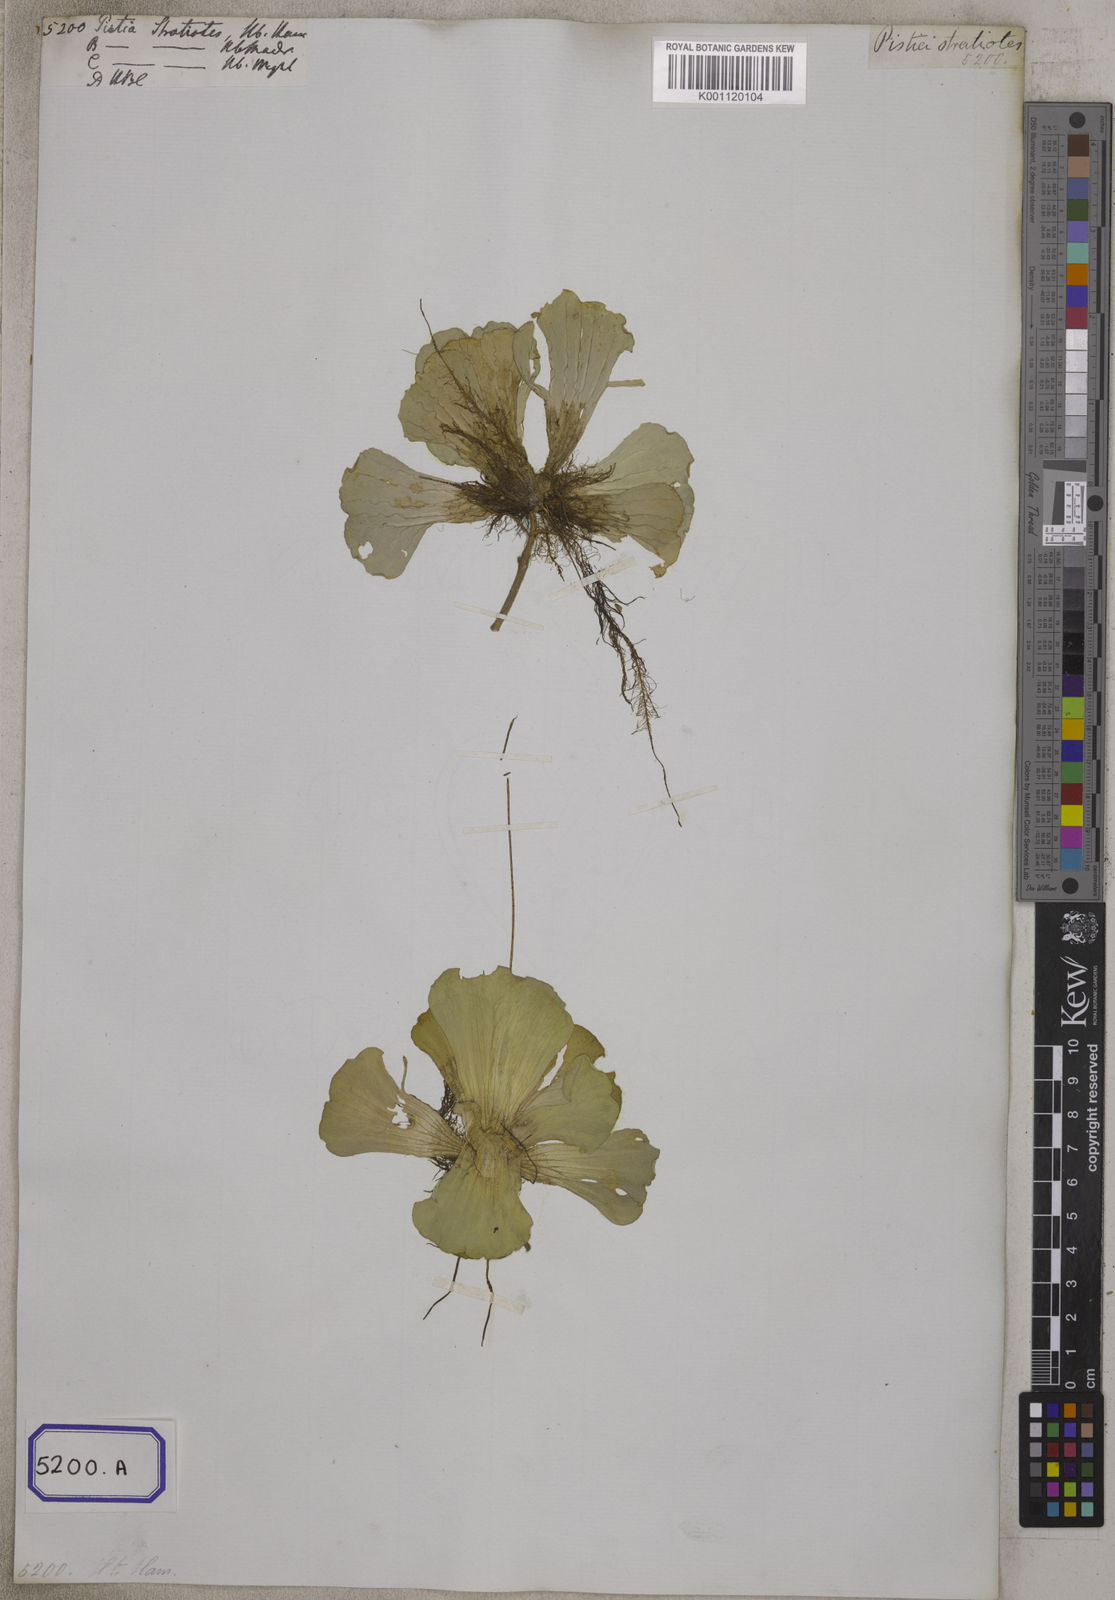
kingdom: Plantae
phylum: Tracheophyta
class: Liliopsida
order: Alismatales
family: Araceae
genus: Pistia
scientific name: Pistia stratiotes
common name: Water lettuce
